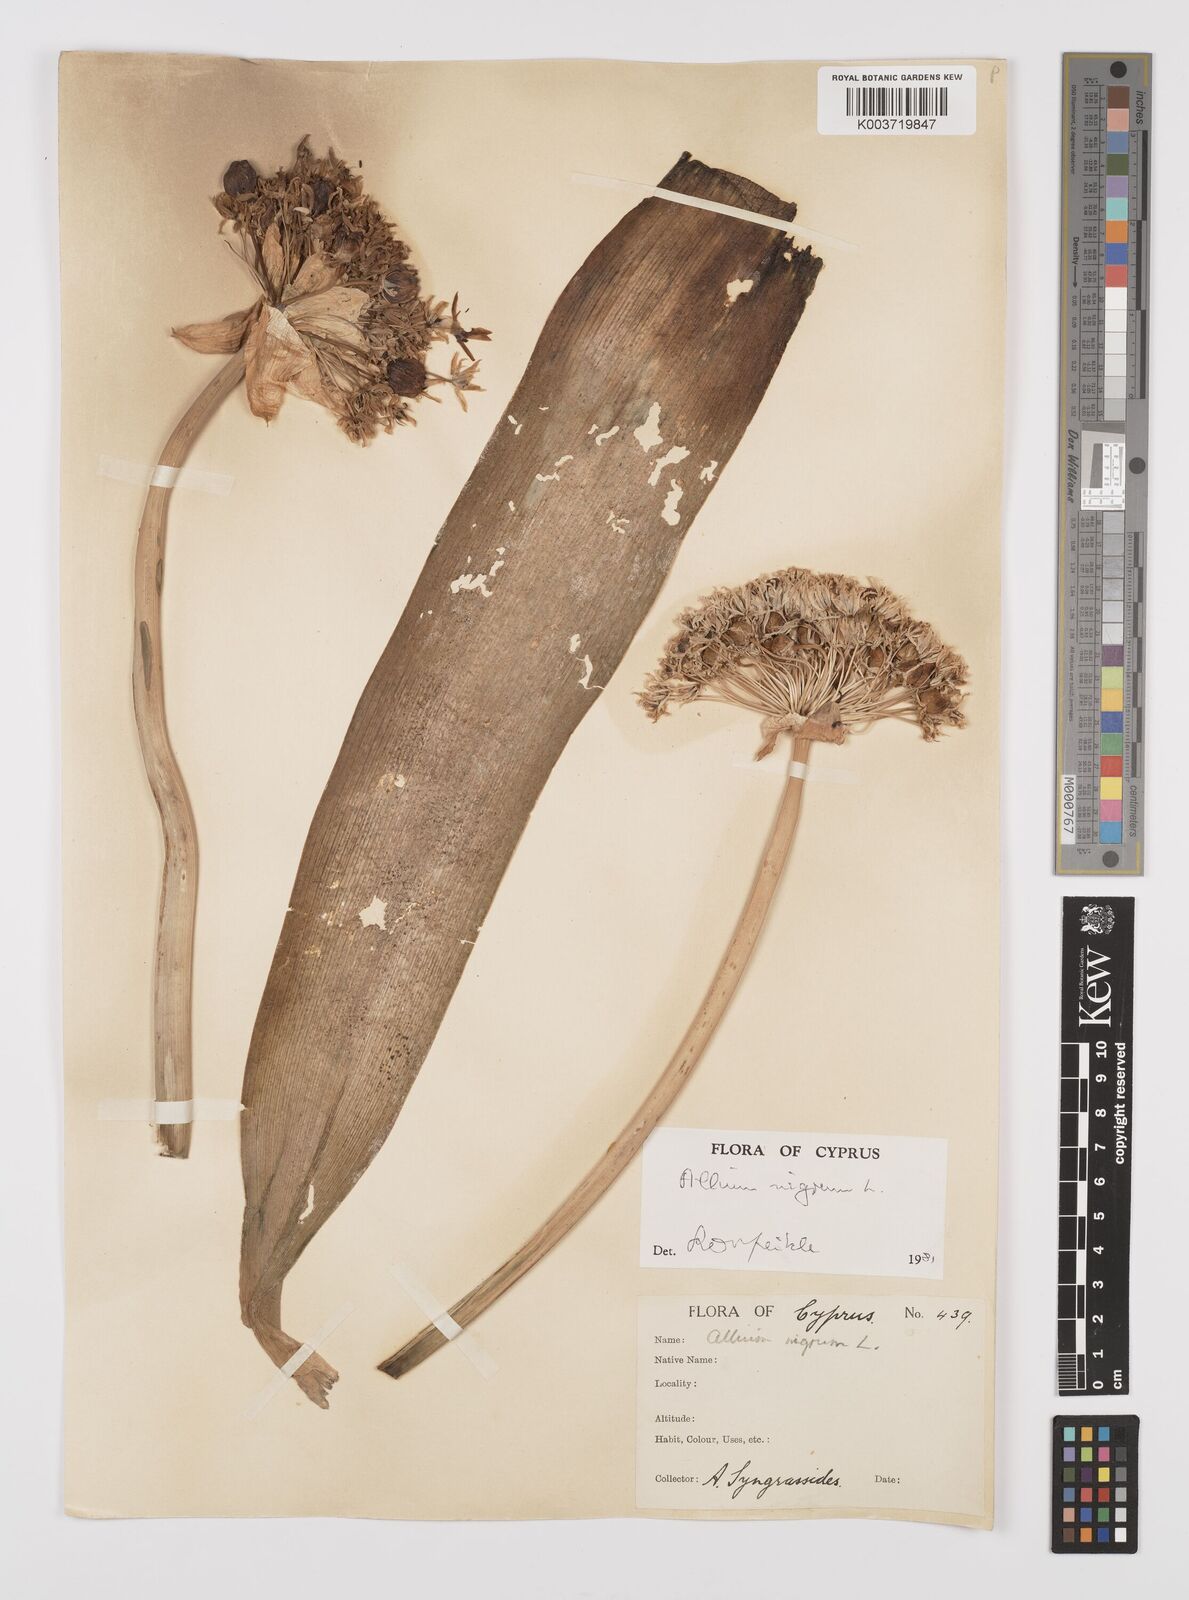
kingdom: Plantae
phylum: Tracheophyta
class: Liliopsida
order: Asparagales
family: Amaryllidaceae
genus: Allium
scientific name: Allium nigrum
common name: Black garlic
